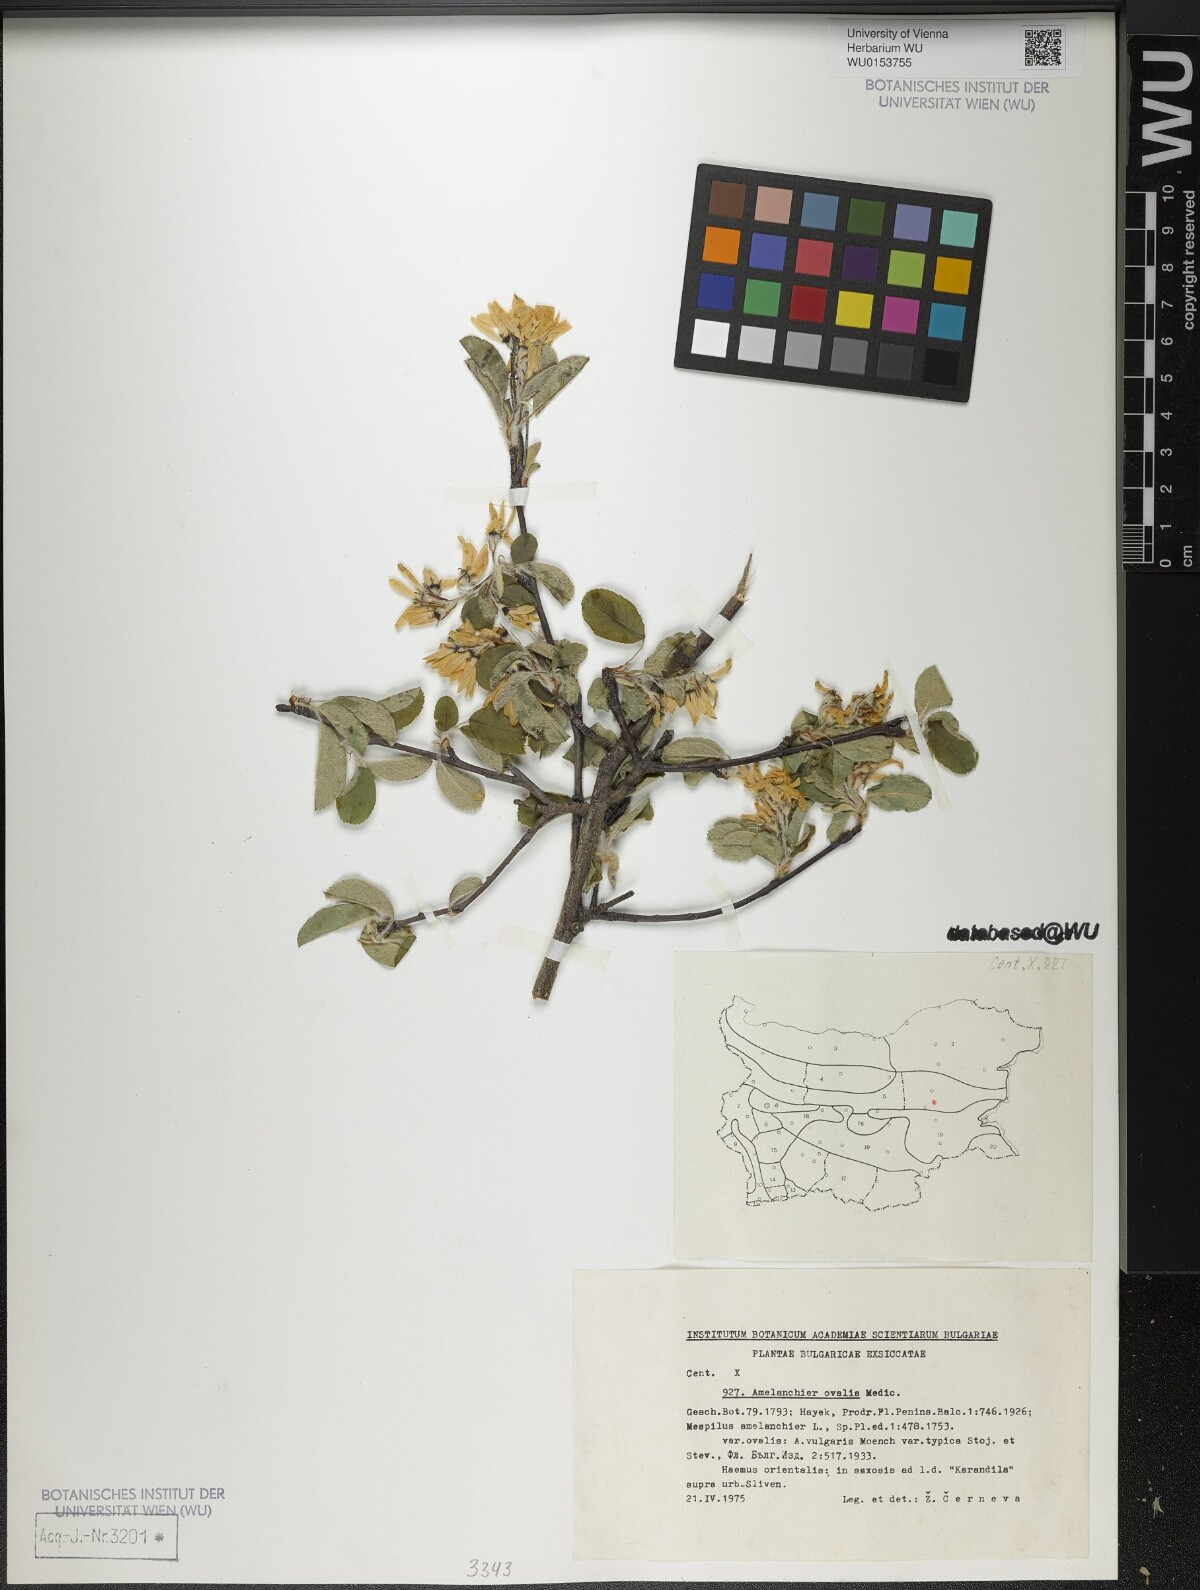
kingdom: Plantae
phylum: Tracheophyta
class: Magnoliopsida
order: Rosales
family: Rosaceae
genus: Amelanchier
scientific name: Amelanchier ovalis
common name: Serviceberry
